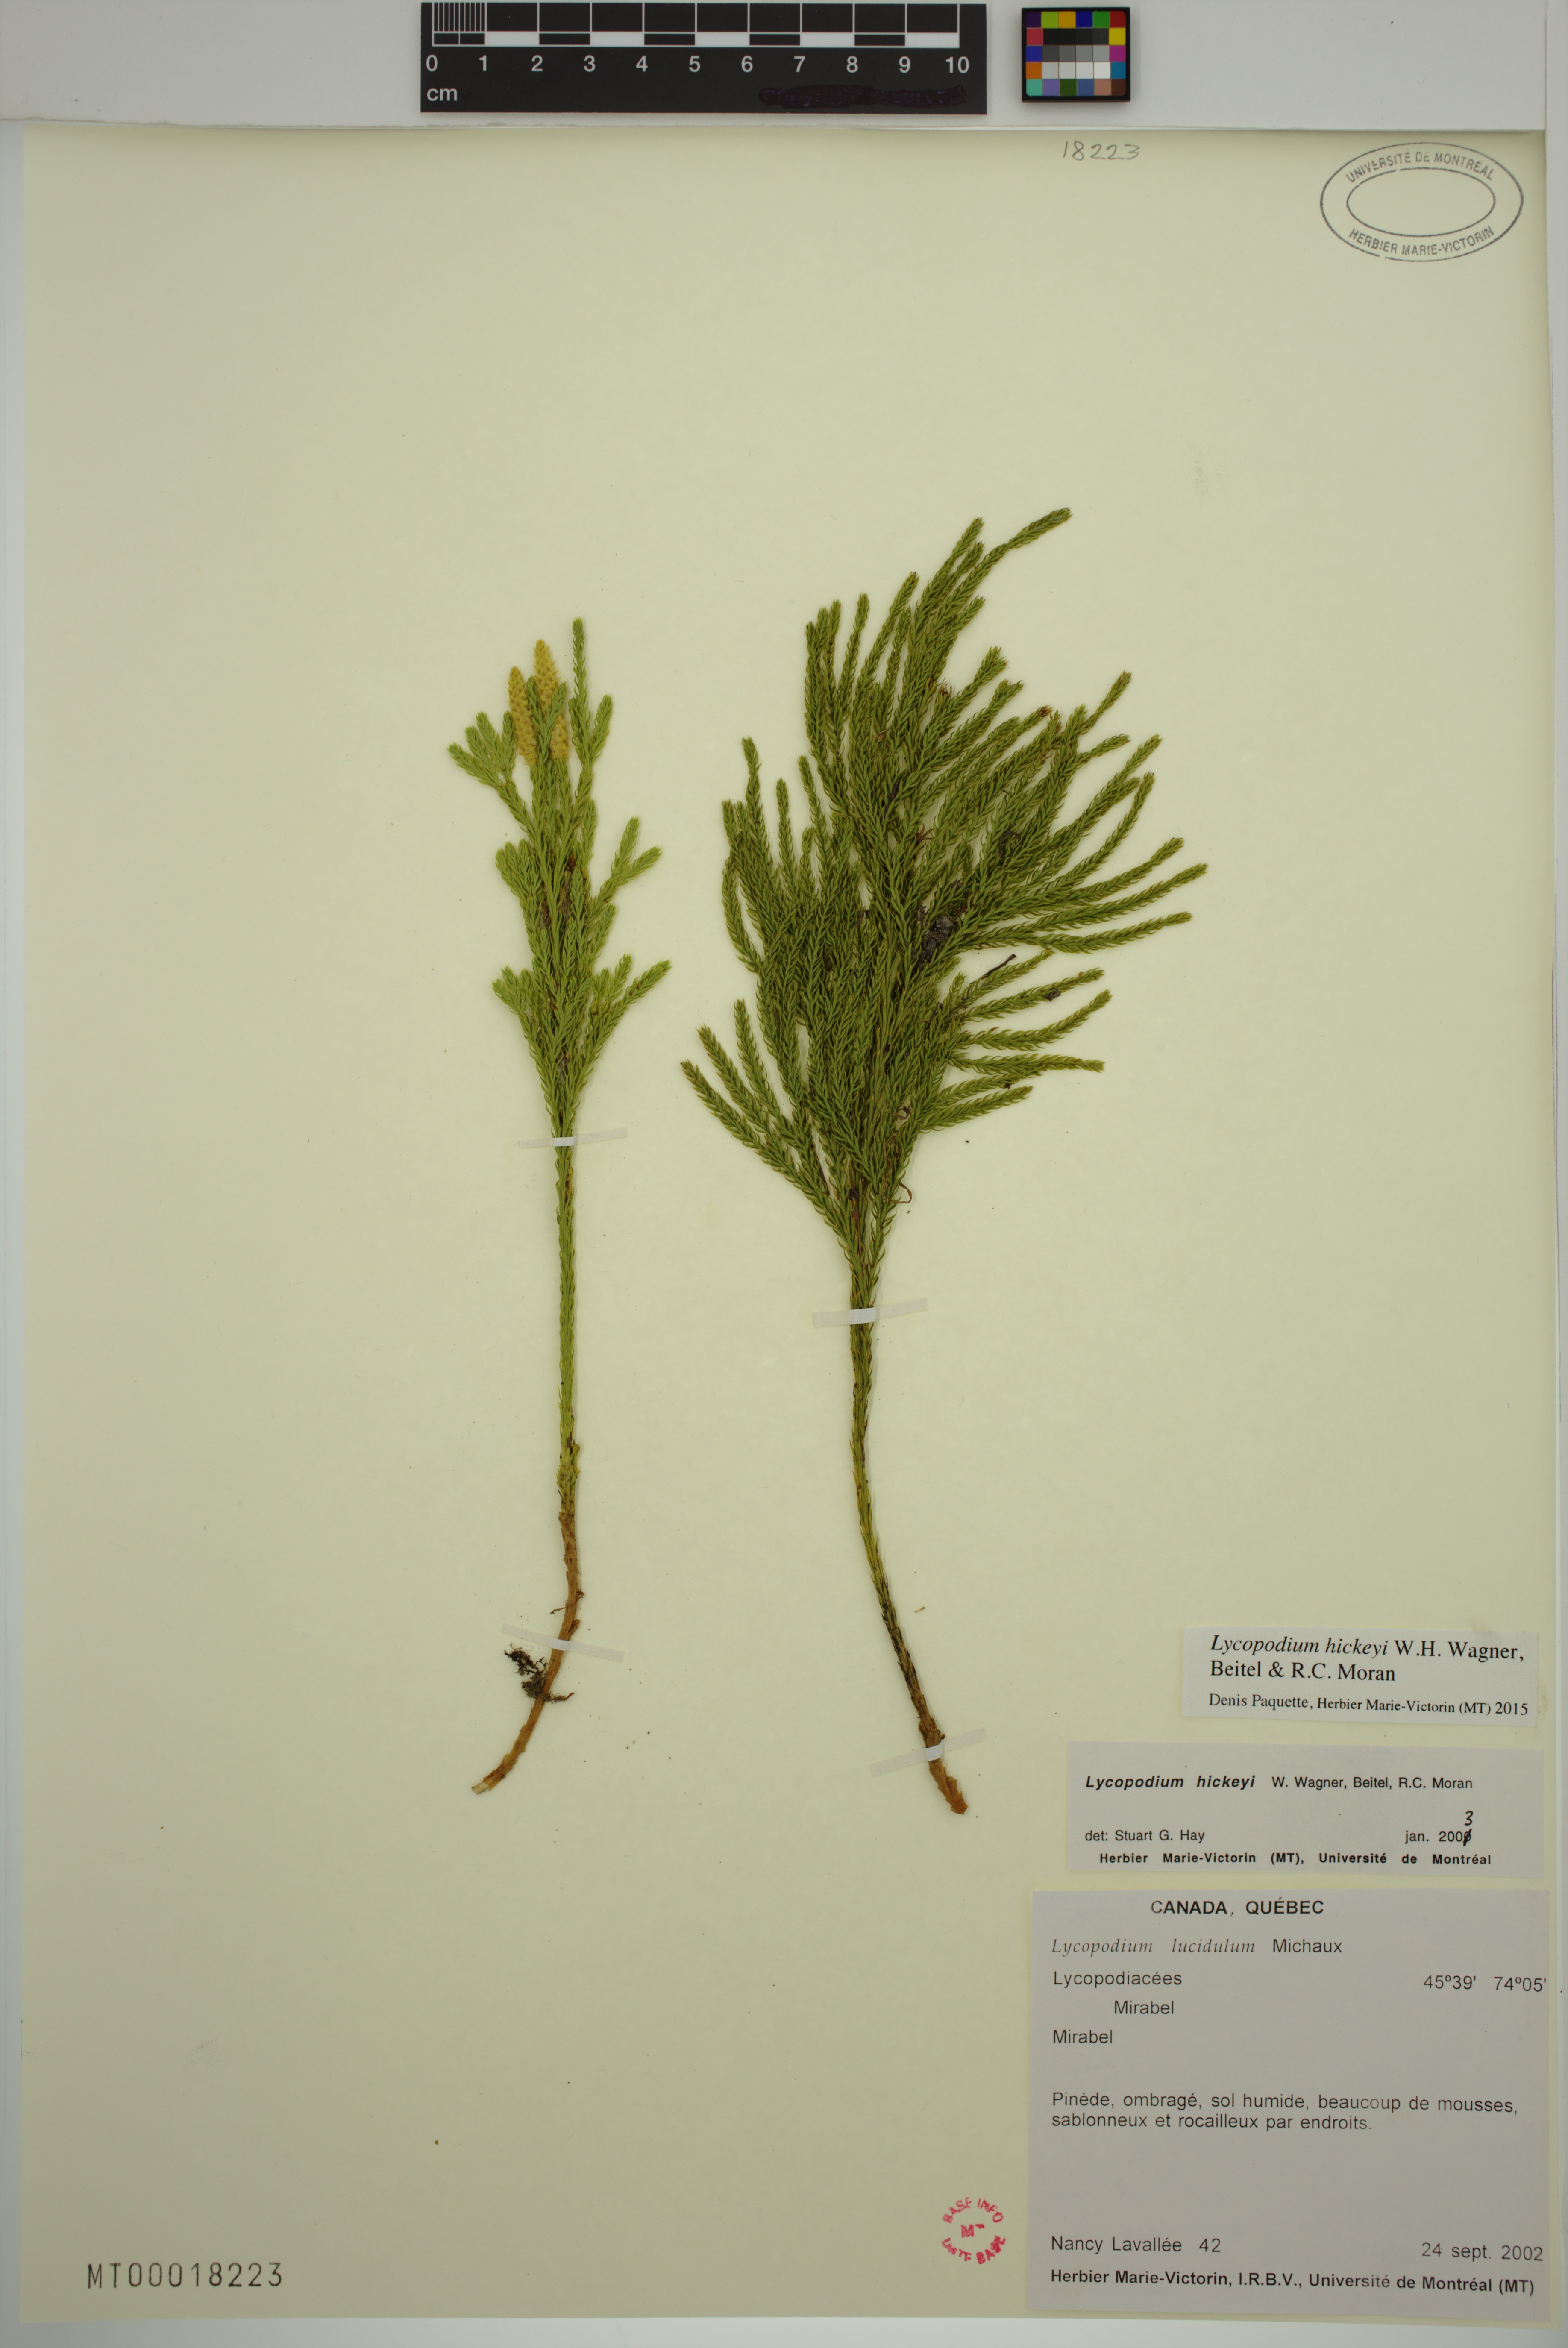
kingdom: Plantae
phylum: Tracheophyta
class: Lycopodiopsida
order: Lycopodiales
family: Lycopodiaceae
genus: Dendrolycopodium
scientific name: Dendrolycopodium hickeyi
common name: Hickey's clubmoss
